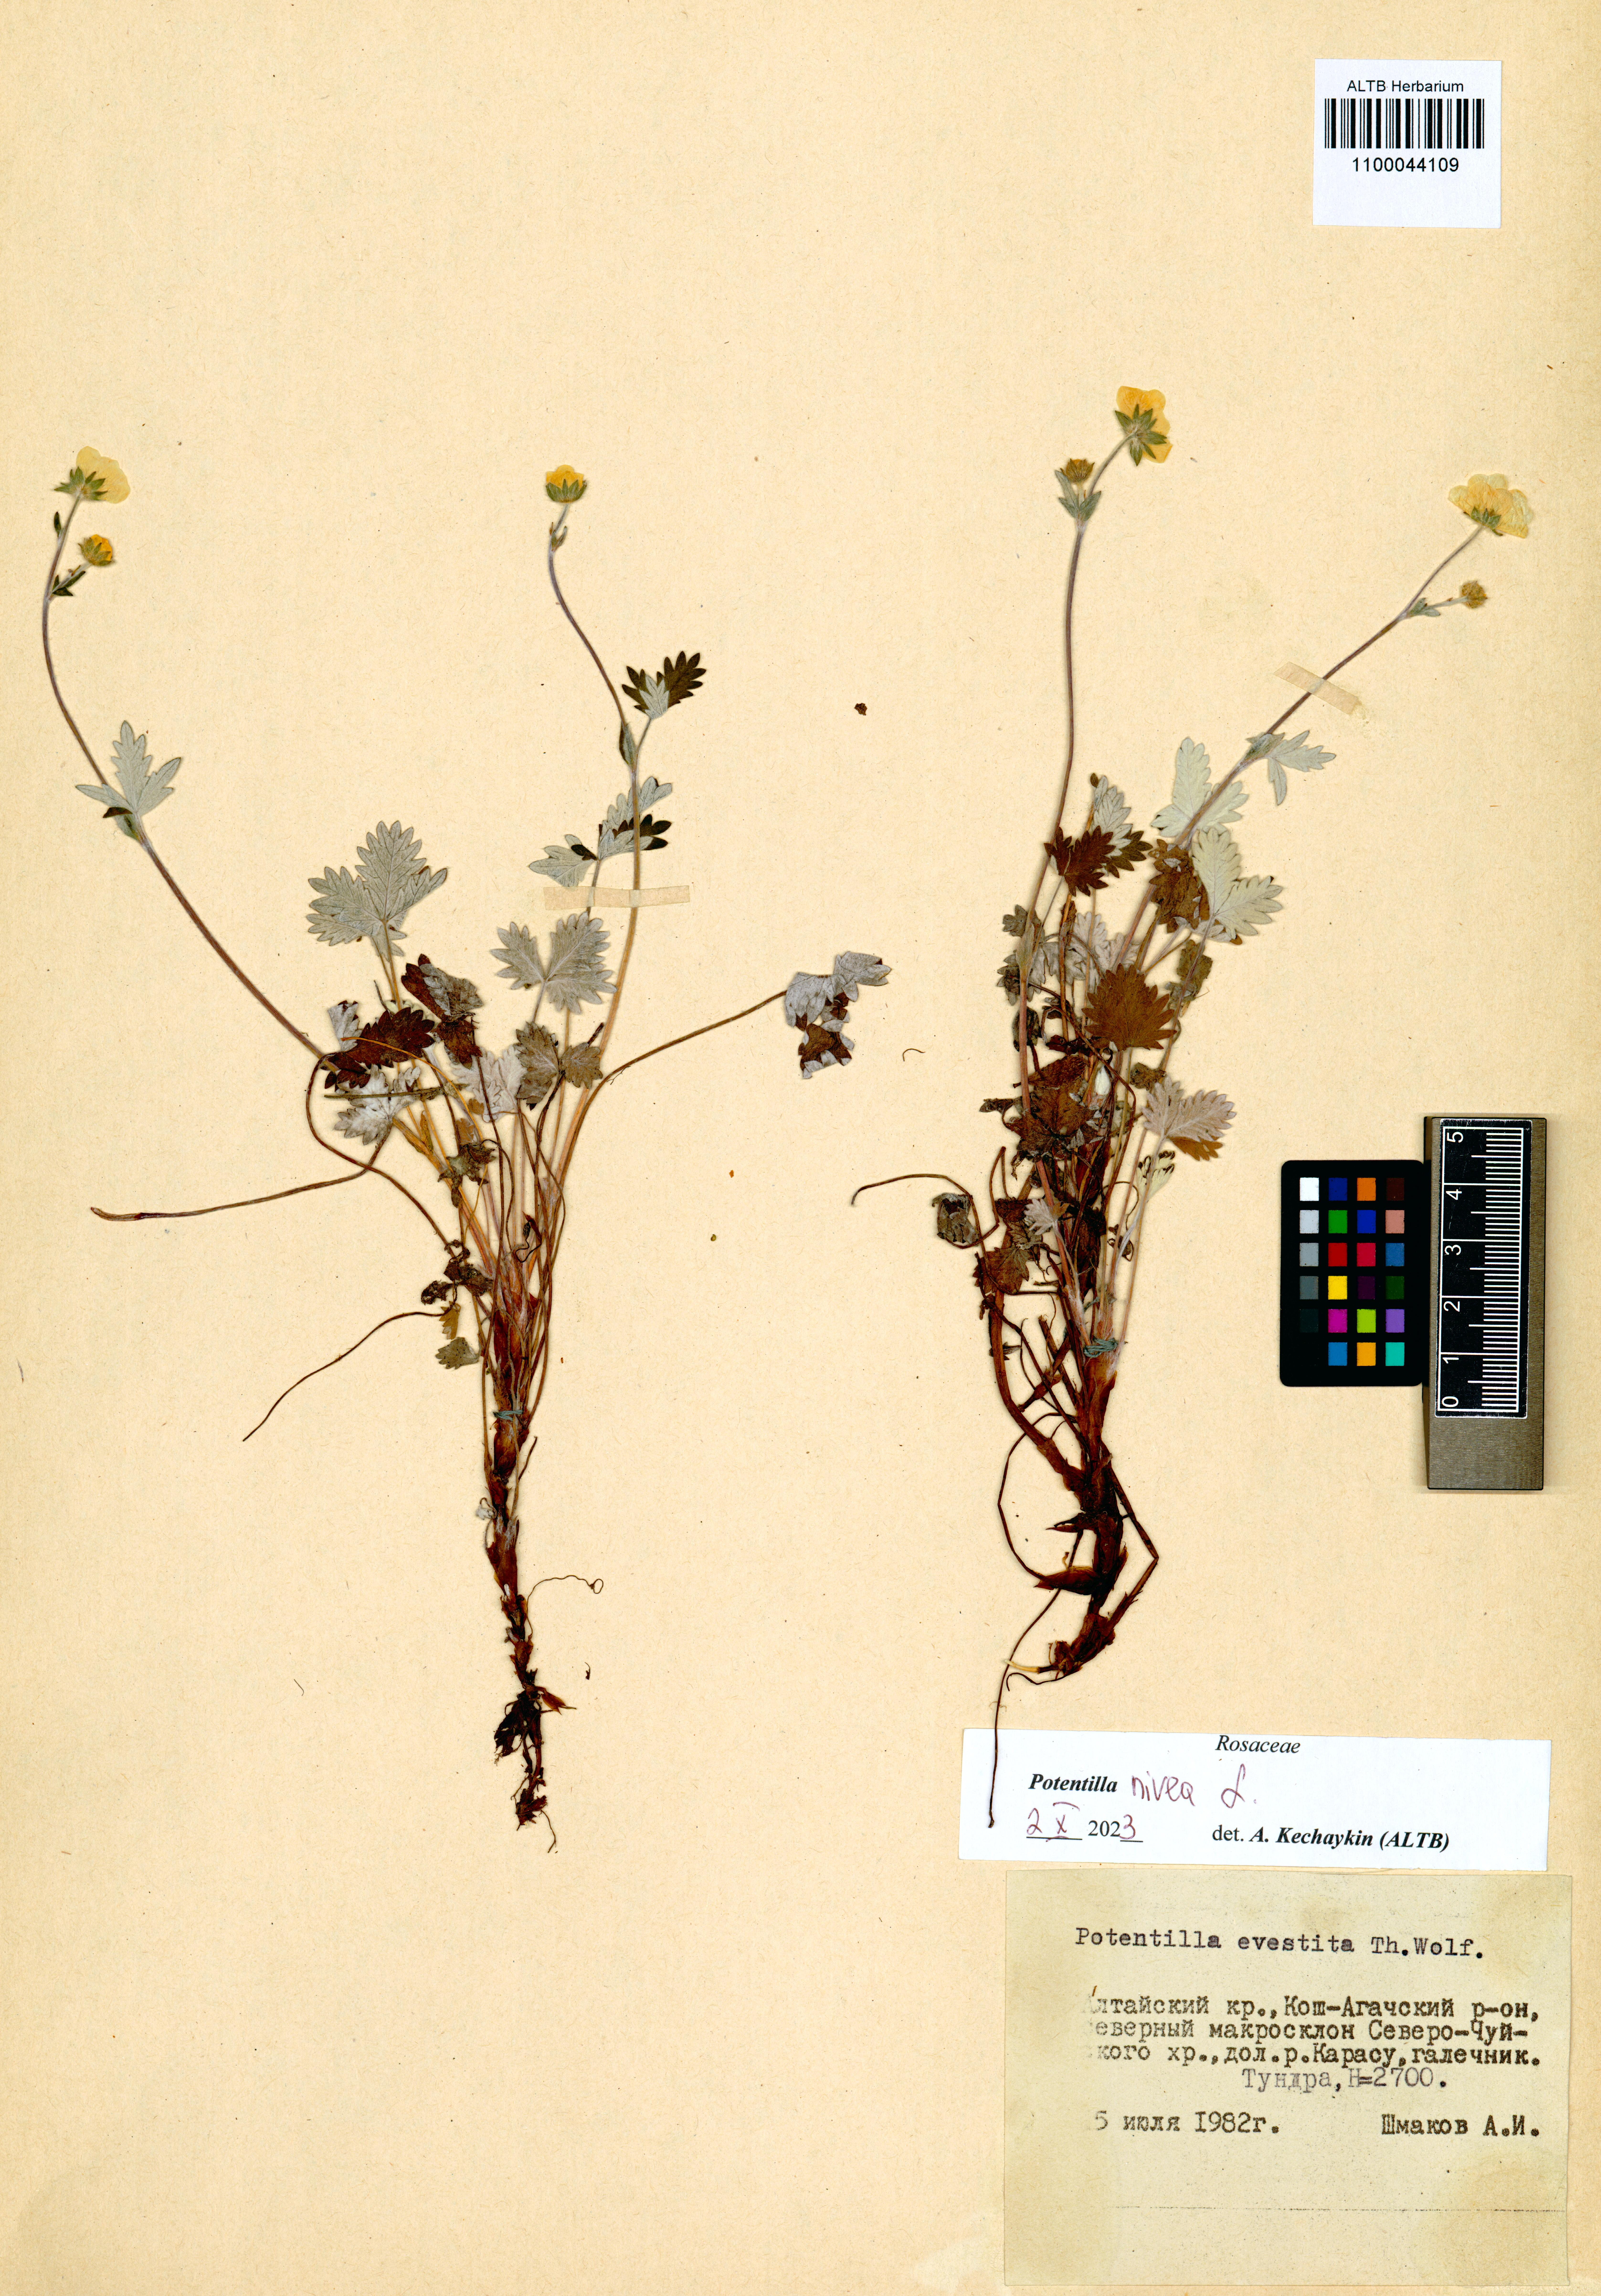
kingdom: Plantae
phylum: Tracheophyta
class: Magnoliopsida
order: Rosales
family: Rosaceae
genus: Potentilla
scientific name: Potentilla nivea
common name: Snow cinquefoil
